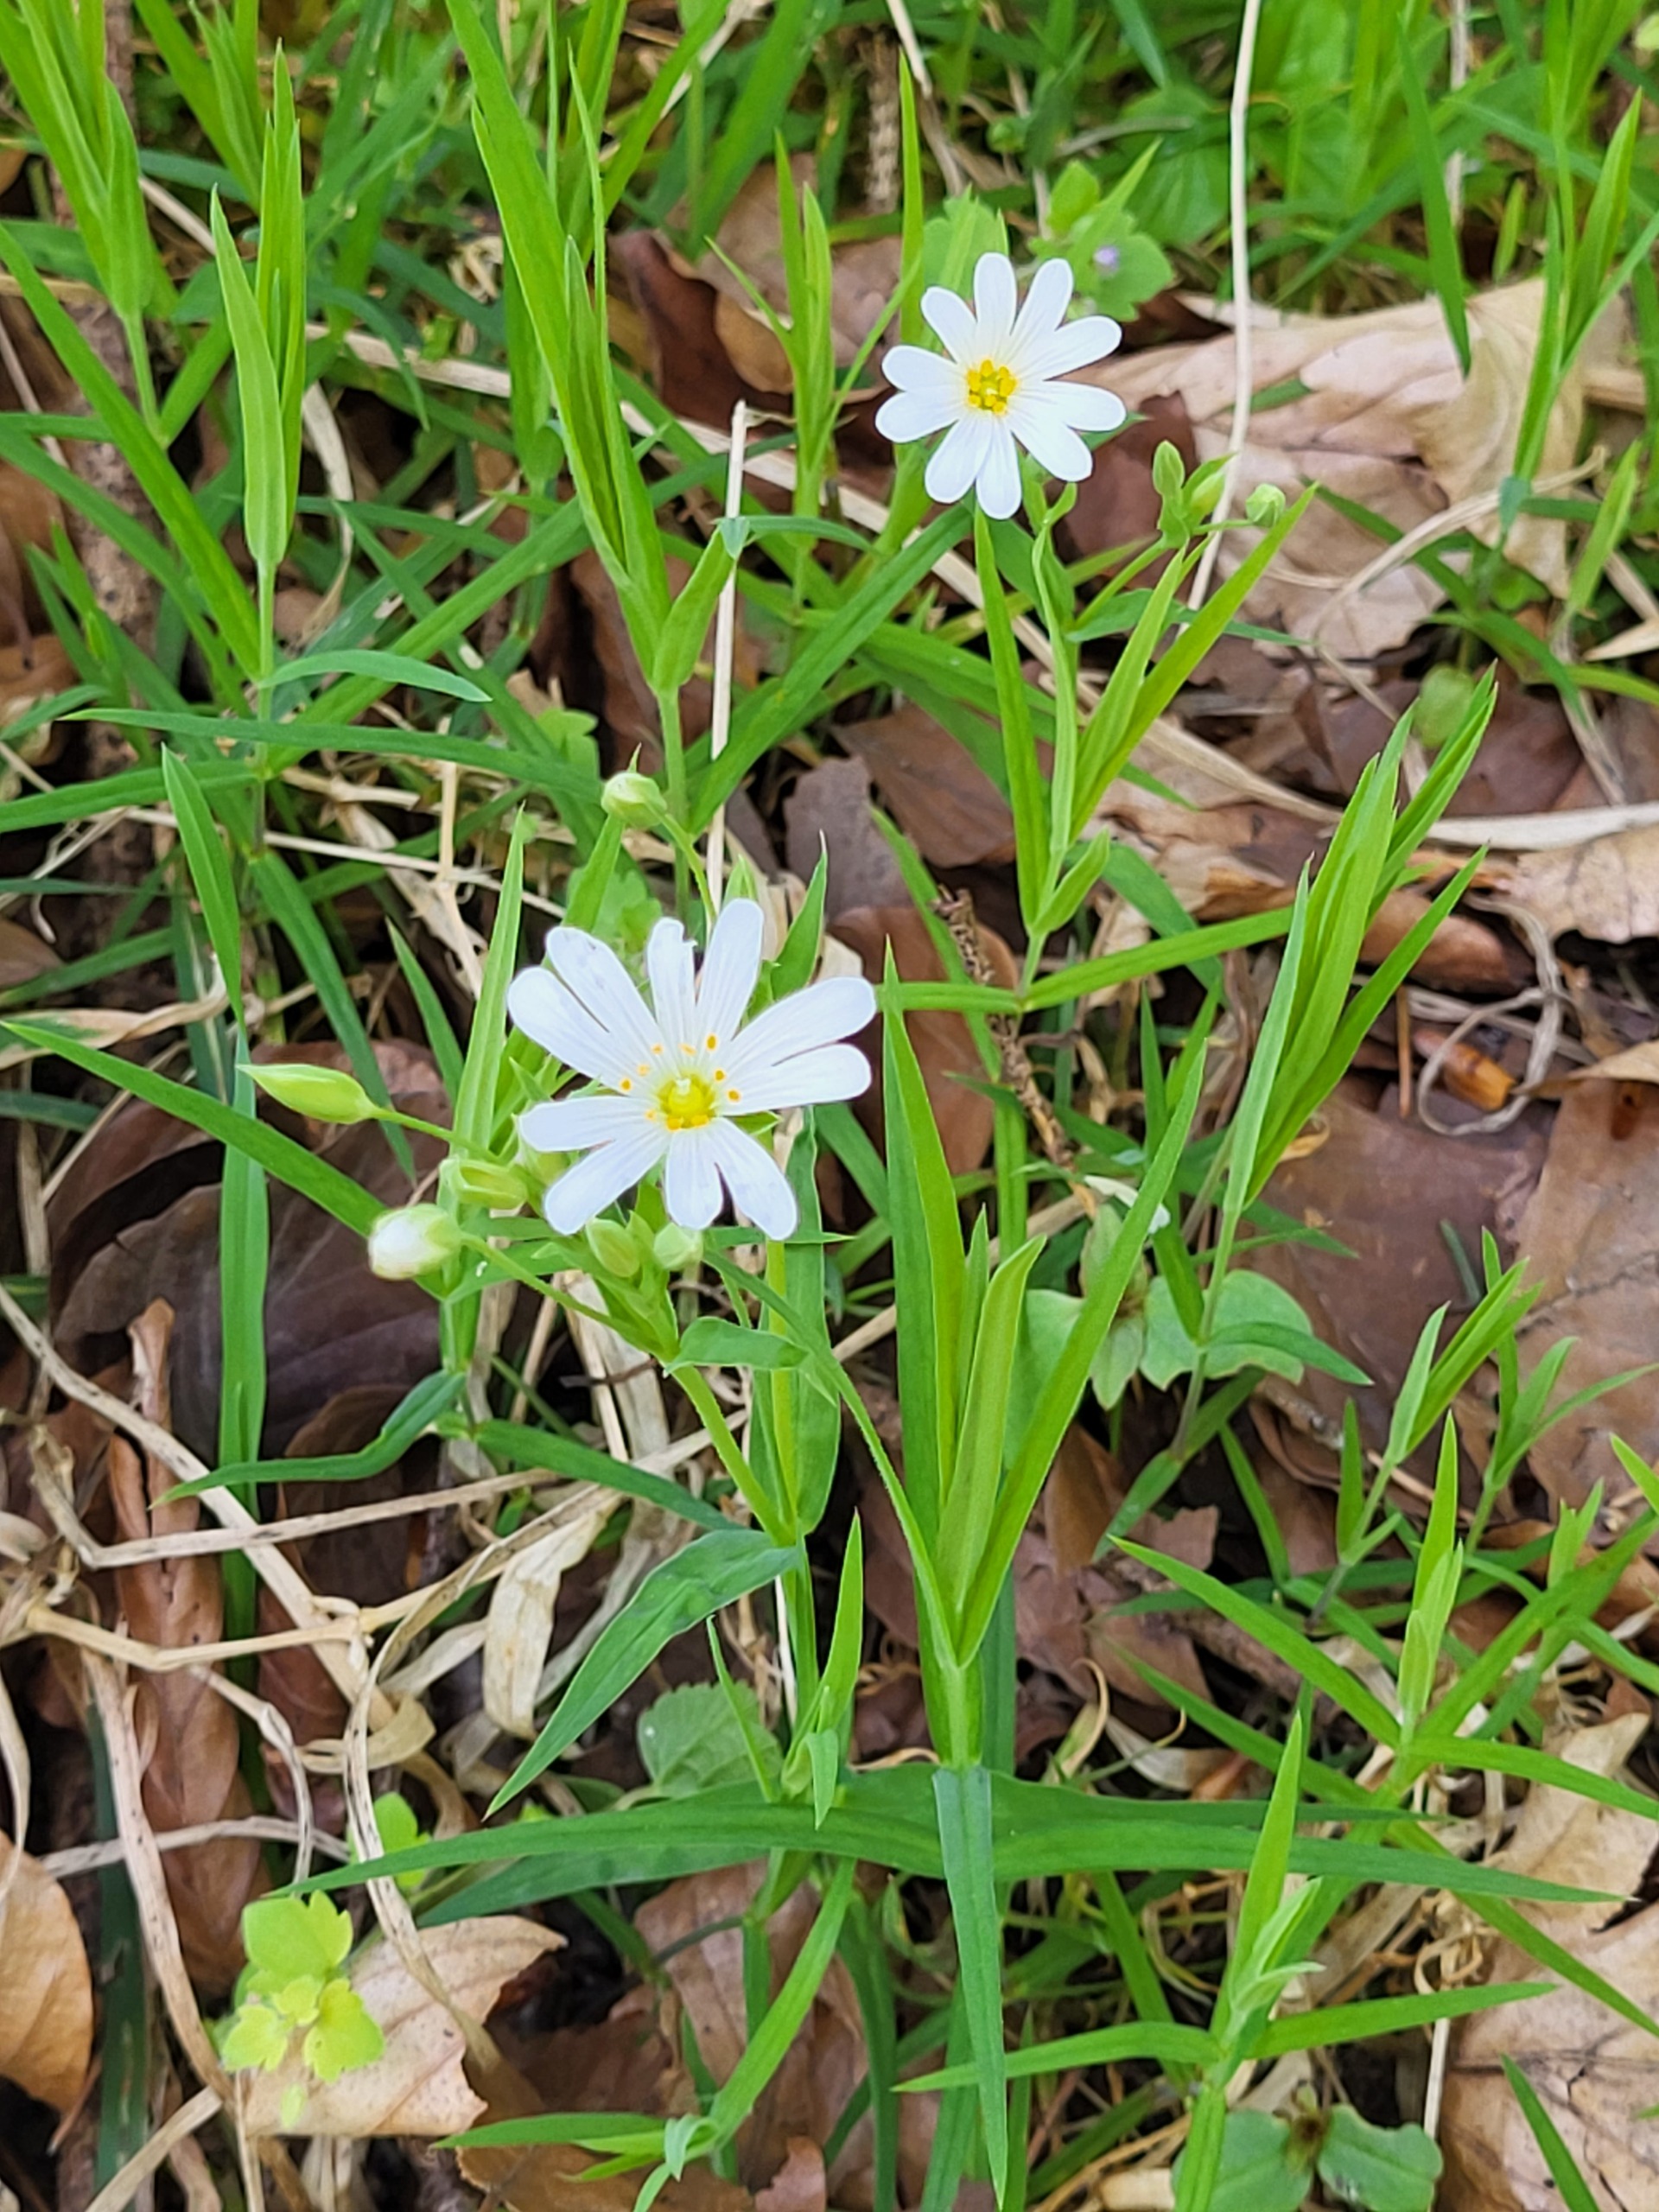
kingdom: Plantae
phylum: Tracheophyta
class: Magnoliopsida
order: Caryophyllales
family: Caryophyllaceae
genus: Rabelera
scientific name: Rabelera holostea
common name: Stor fladstjerne
